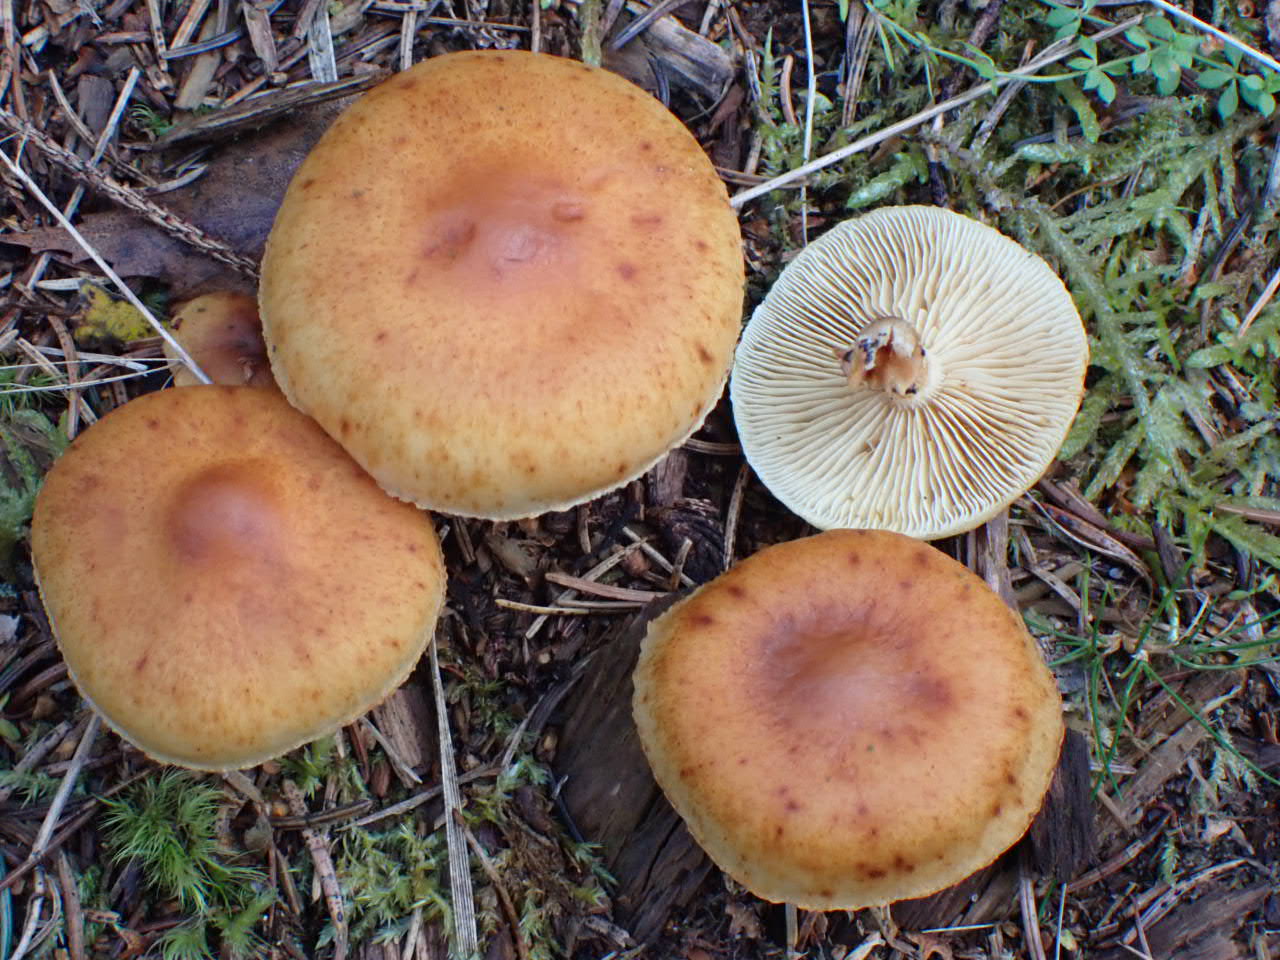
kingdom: Fungi
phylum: Basidiomycota
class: Agaricomycetes
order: Agaricales
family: Hymenogastraceae
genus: Gymnopilus
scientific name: Gymnopilus penetrans
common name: plettet flammehat
